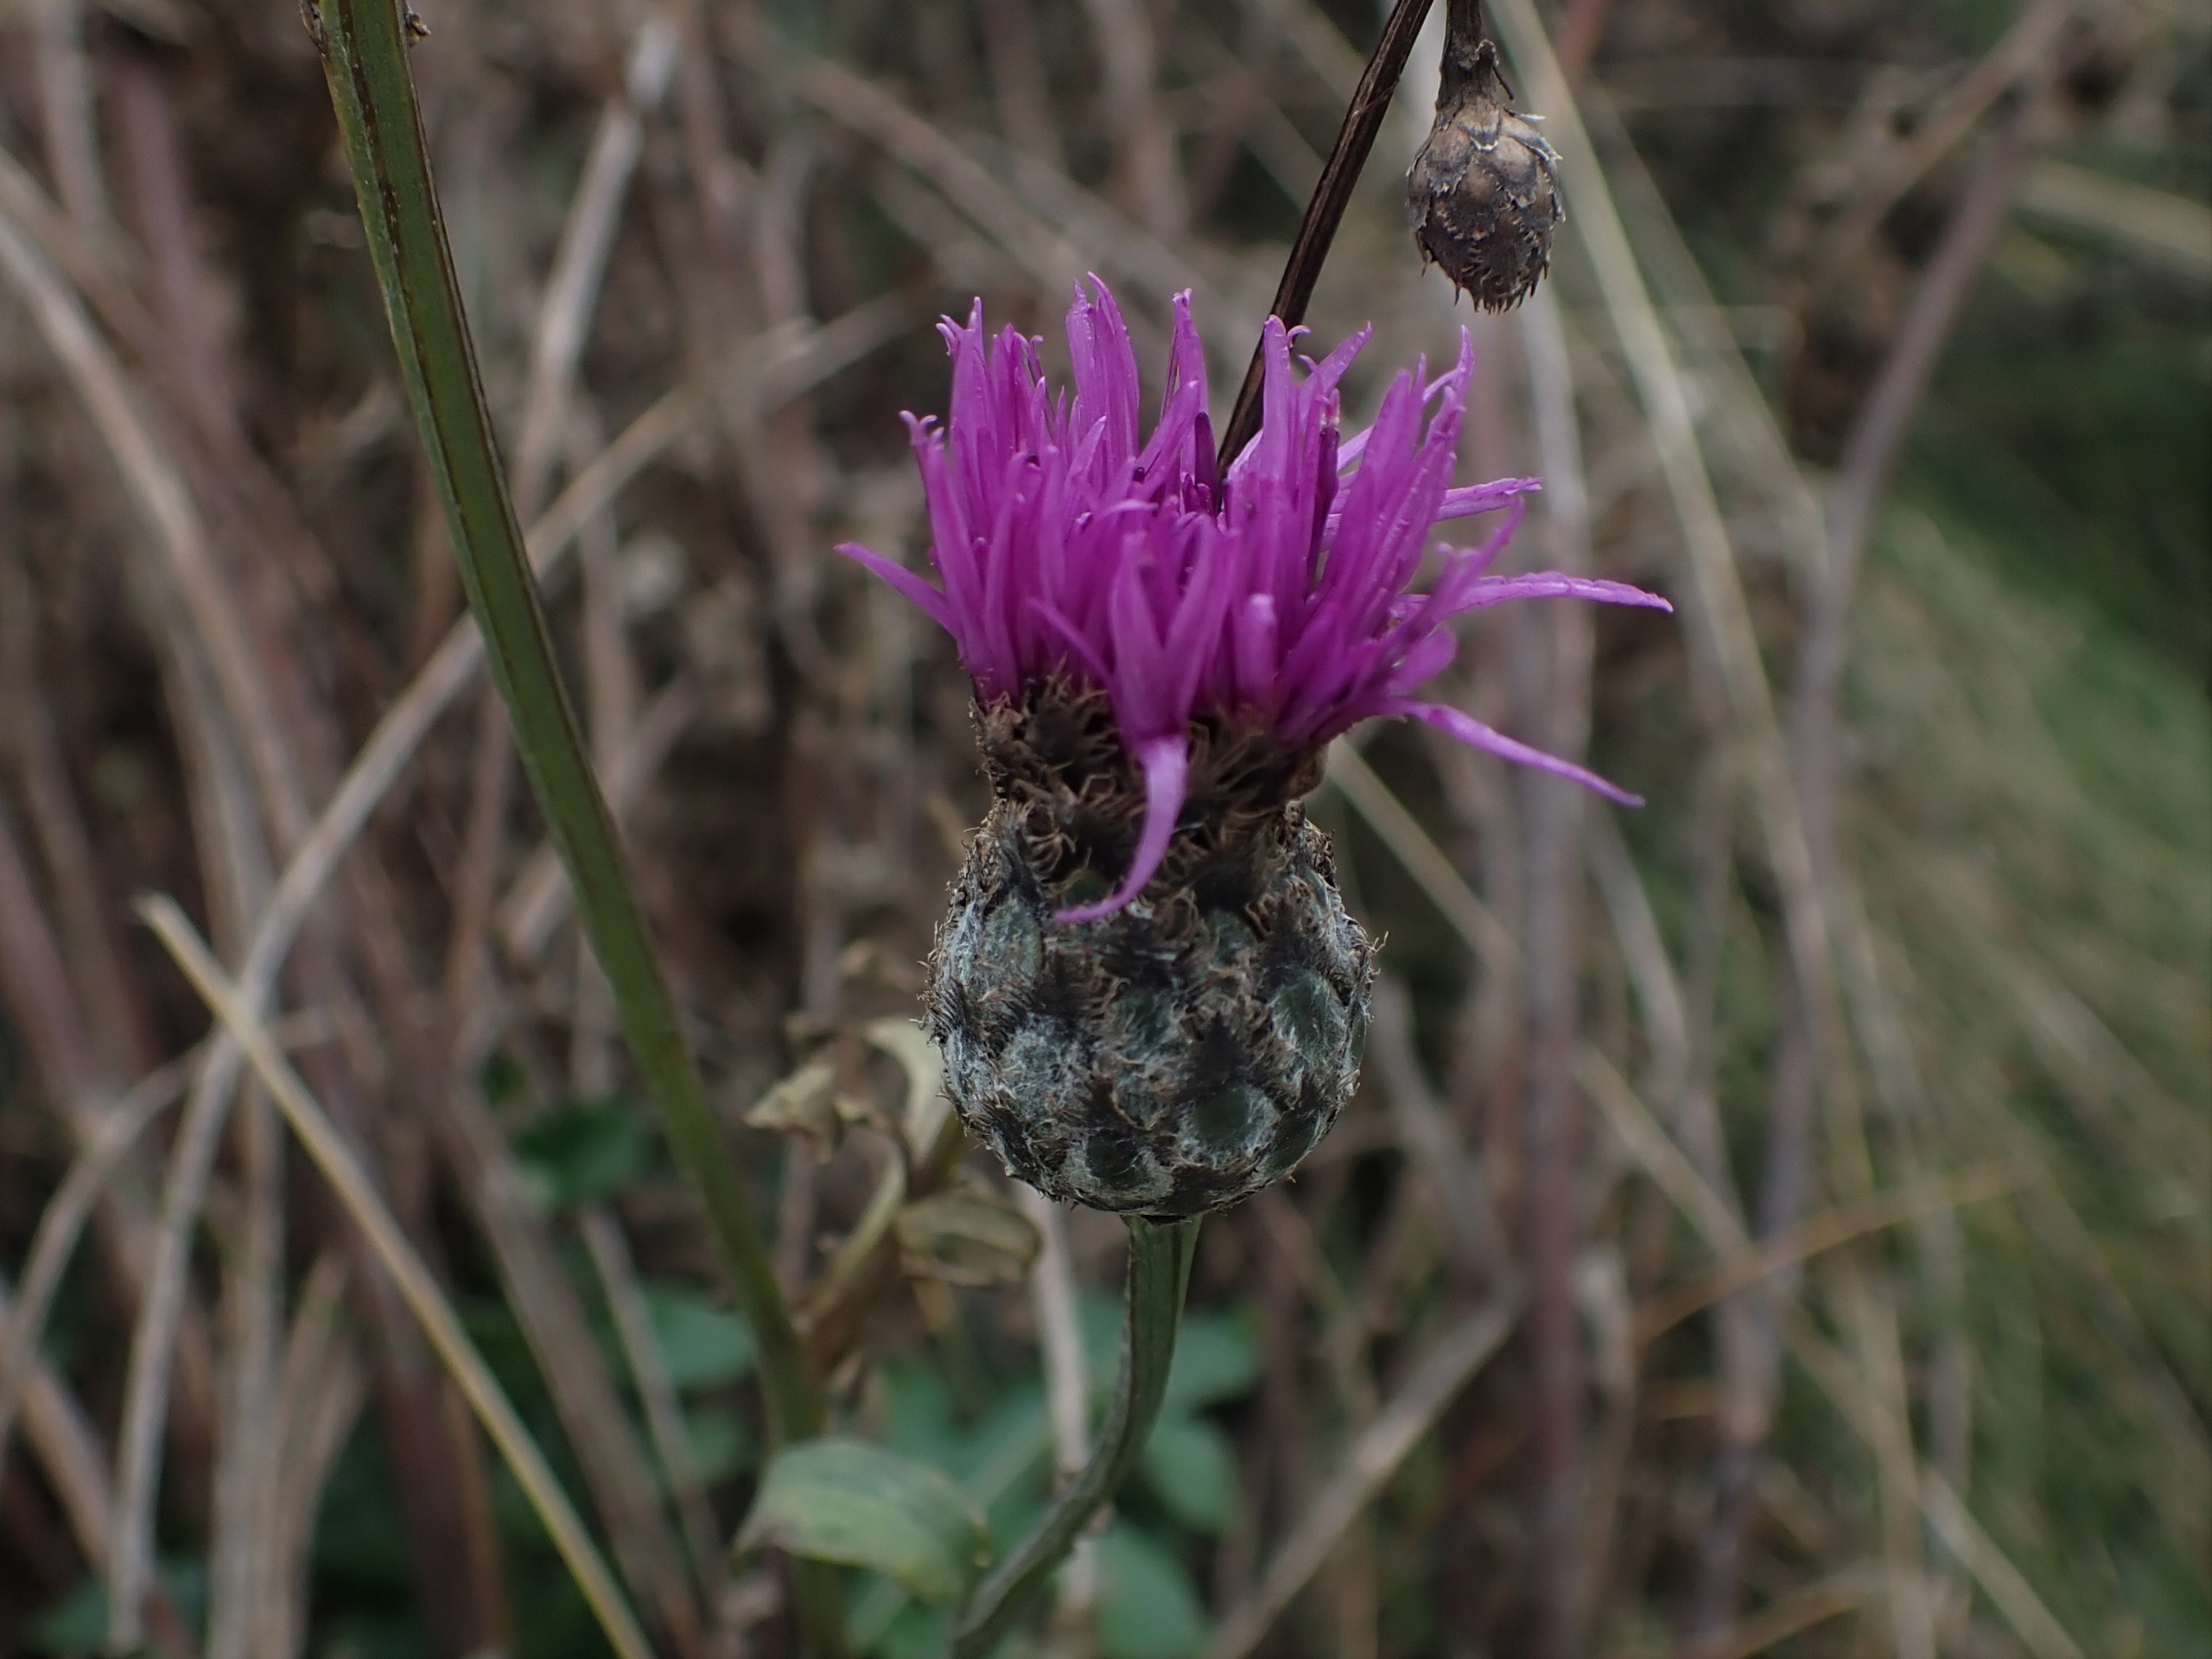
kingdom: Plantae
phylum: Tracheophyta
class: Magnoliopsida
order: Asterales
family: Asteraceae
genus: Centaurea
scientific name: Centaurea scabiosa
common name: Stor knopurt
